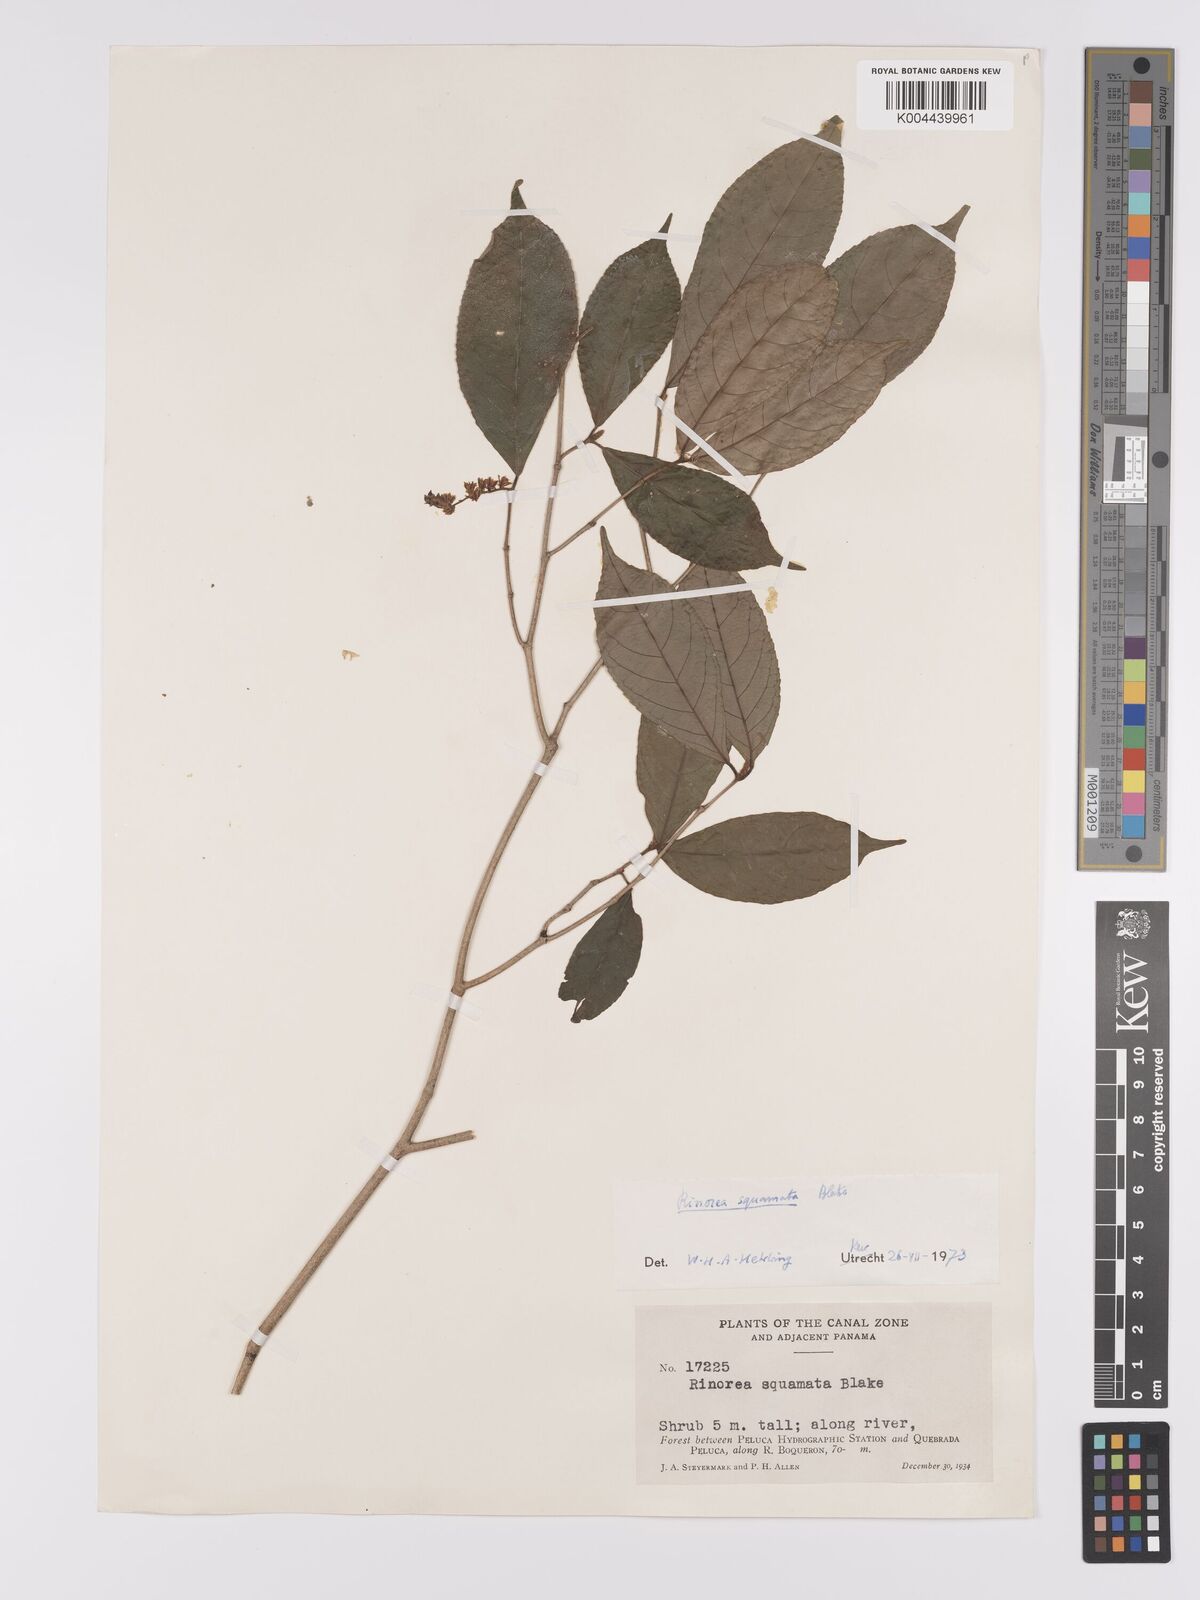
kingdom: Plantae
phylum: Tracheophyta
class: Magnoliopsida
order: Malpighiales
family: Violaceae
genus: Rinorea
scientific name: Rinorea squamata
